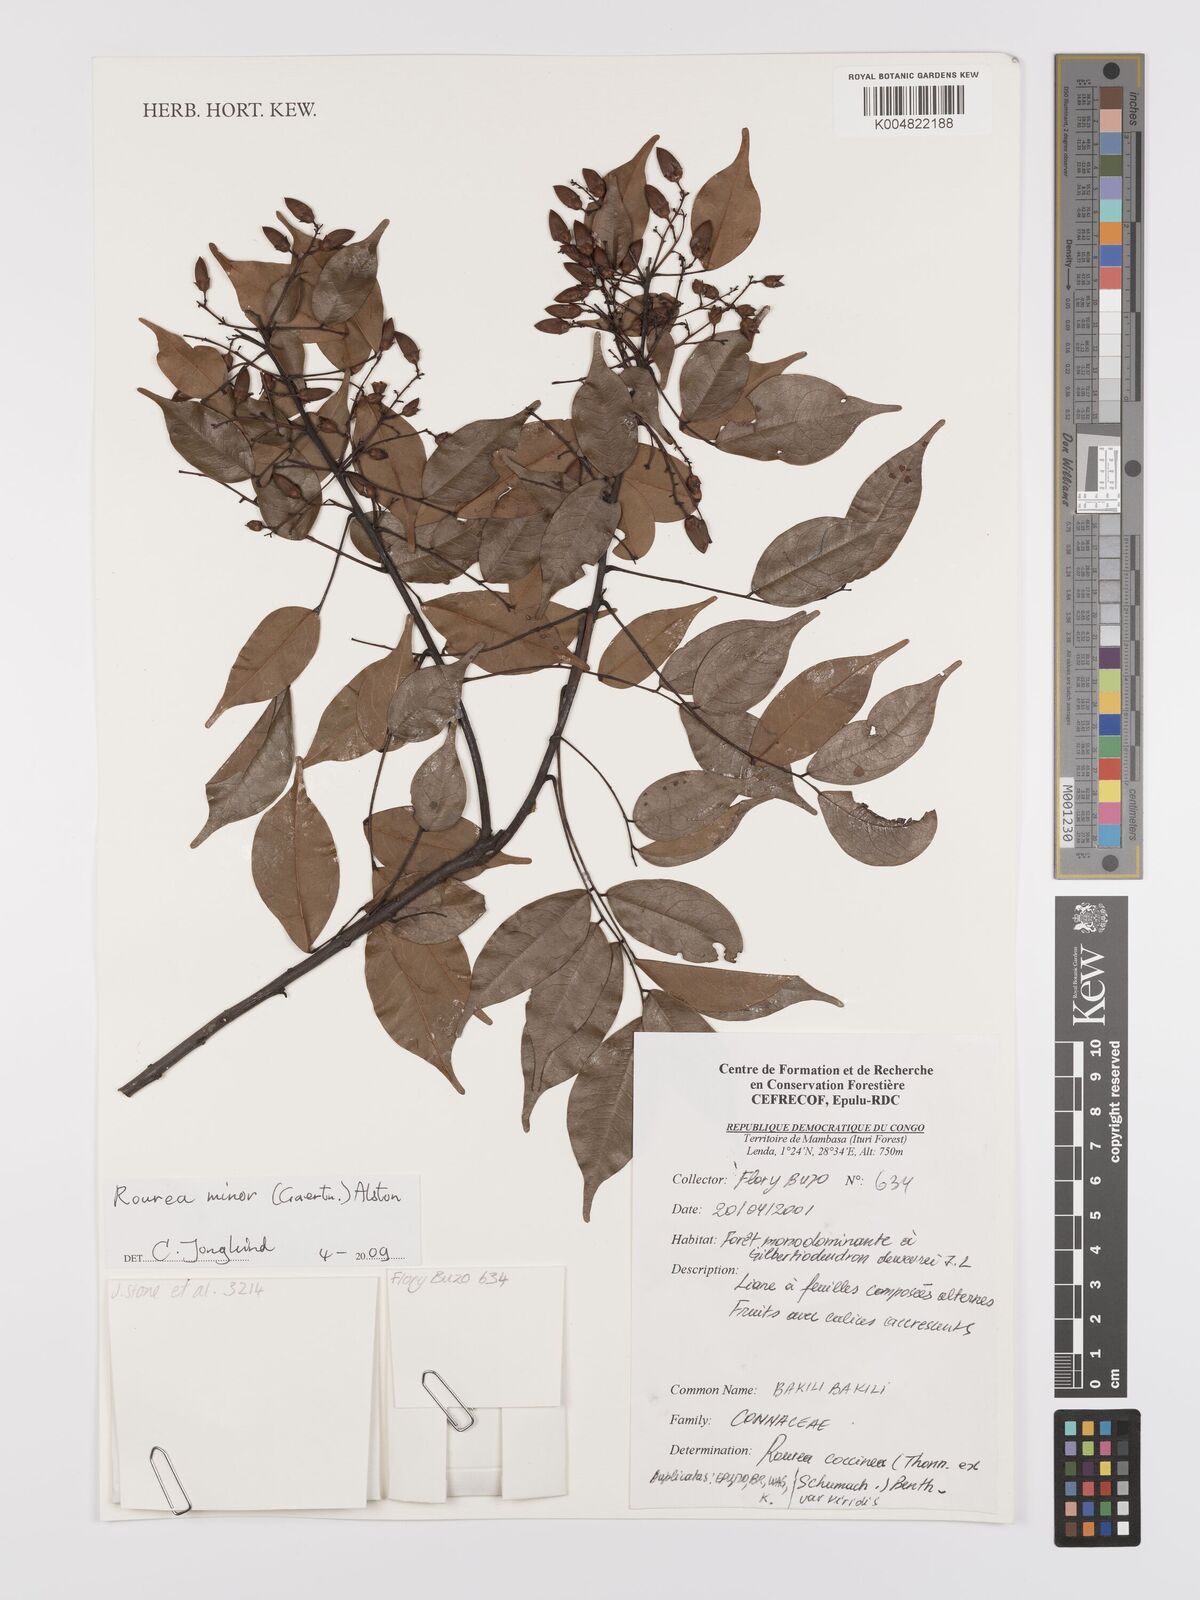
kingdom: Plantae
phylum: Tracheophyta
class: Magnoliopsida
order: Oxalidales
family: Connaraceae
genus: Rourea
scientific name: Rourea minor
